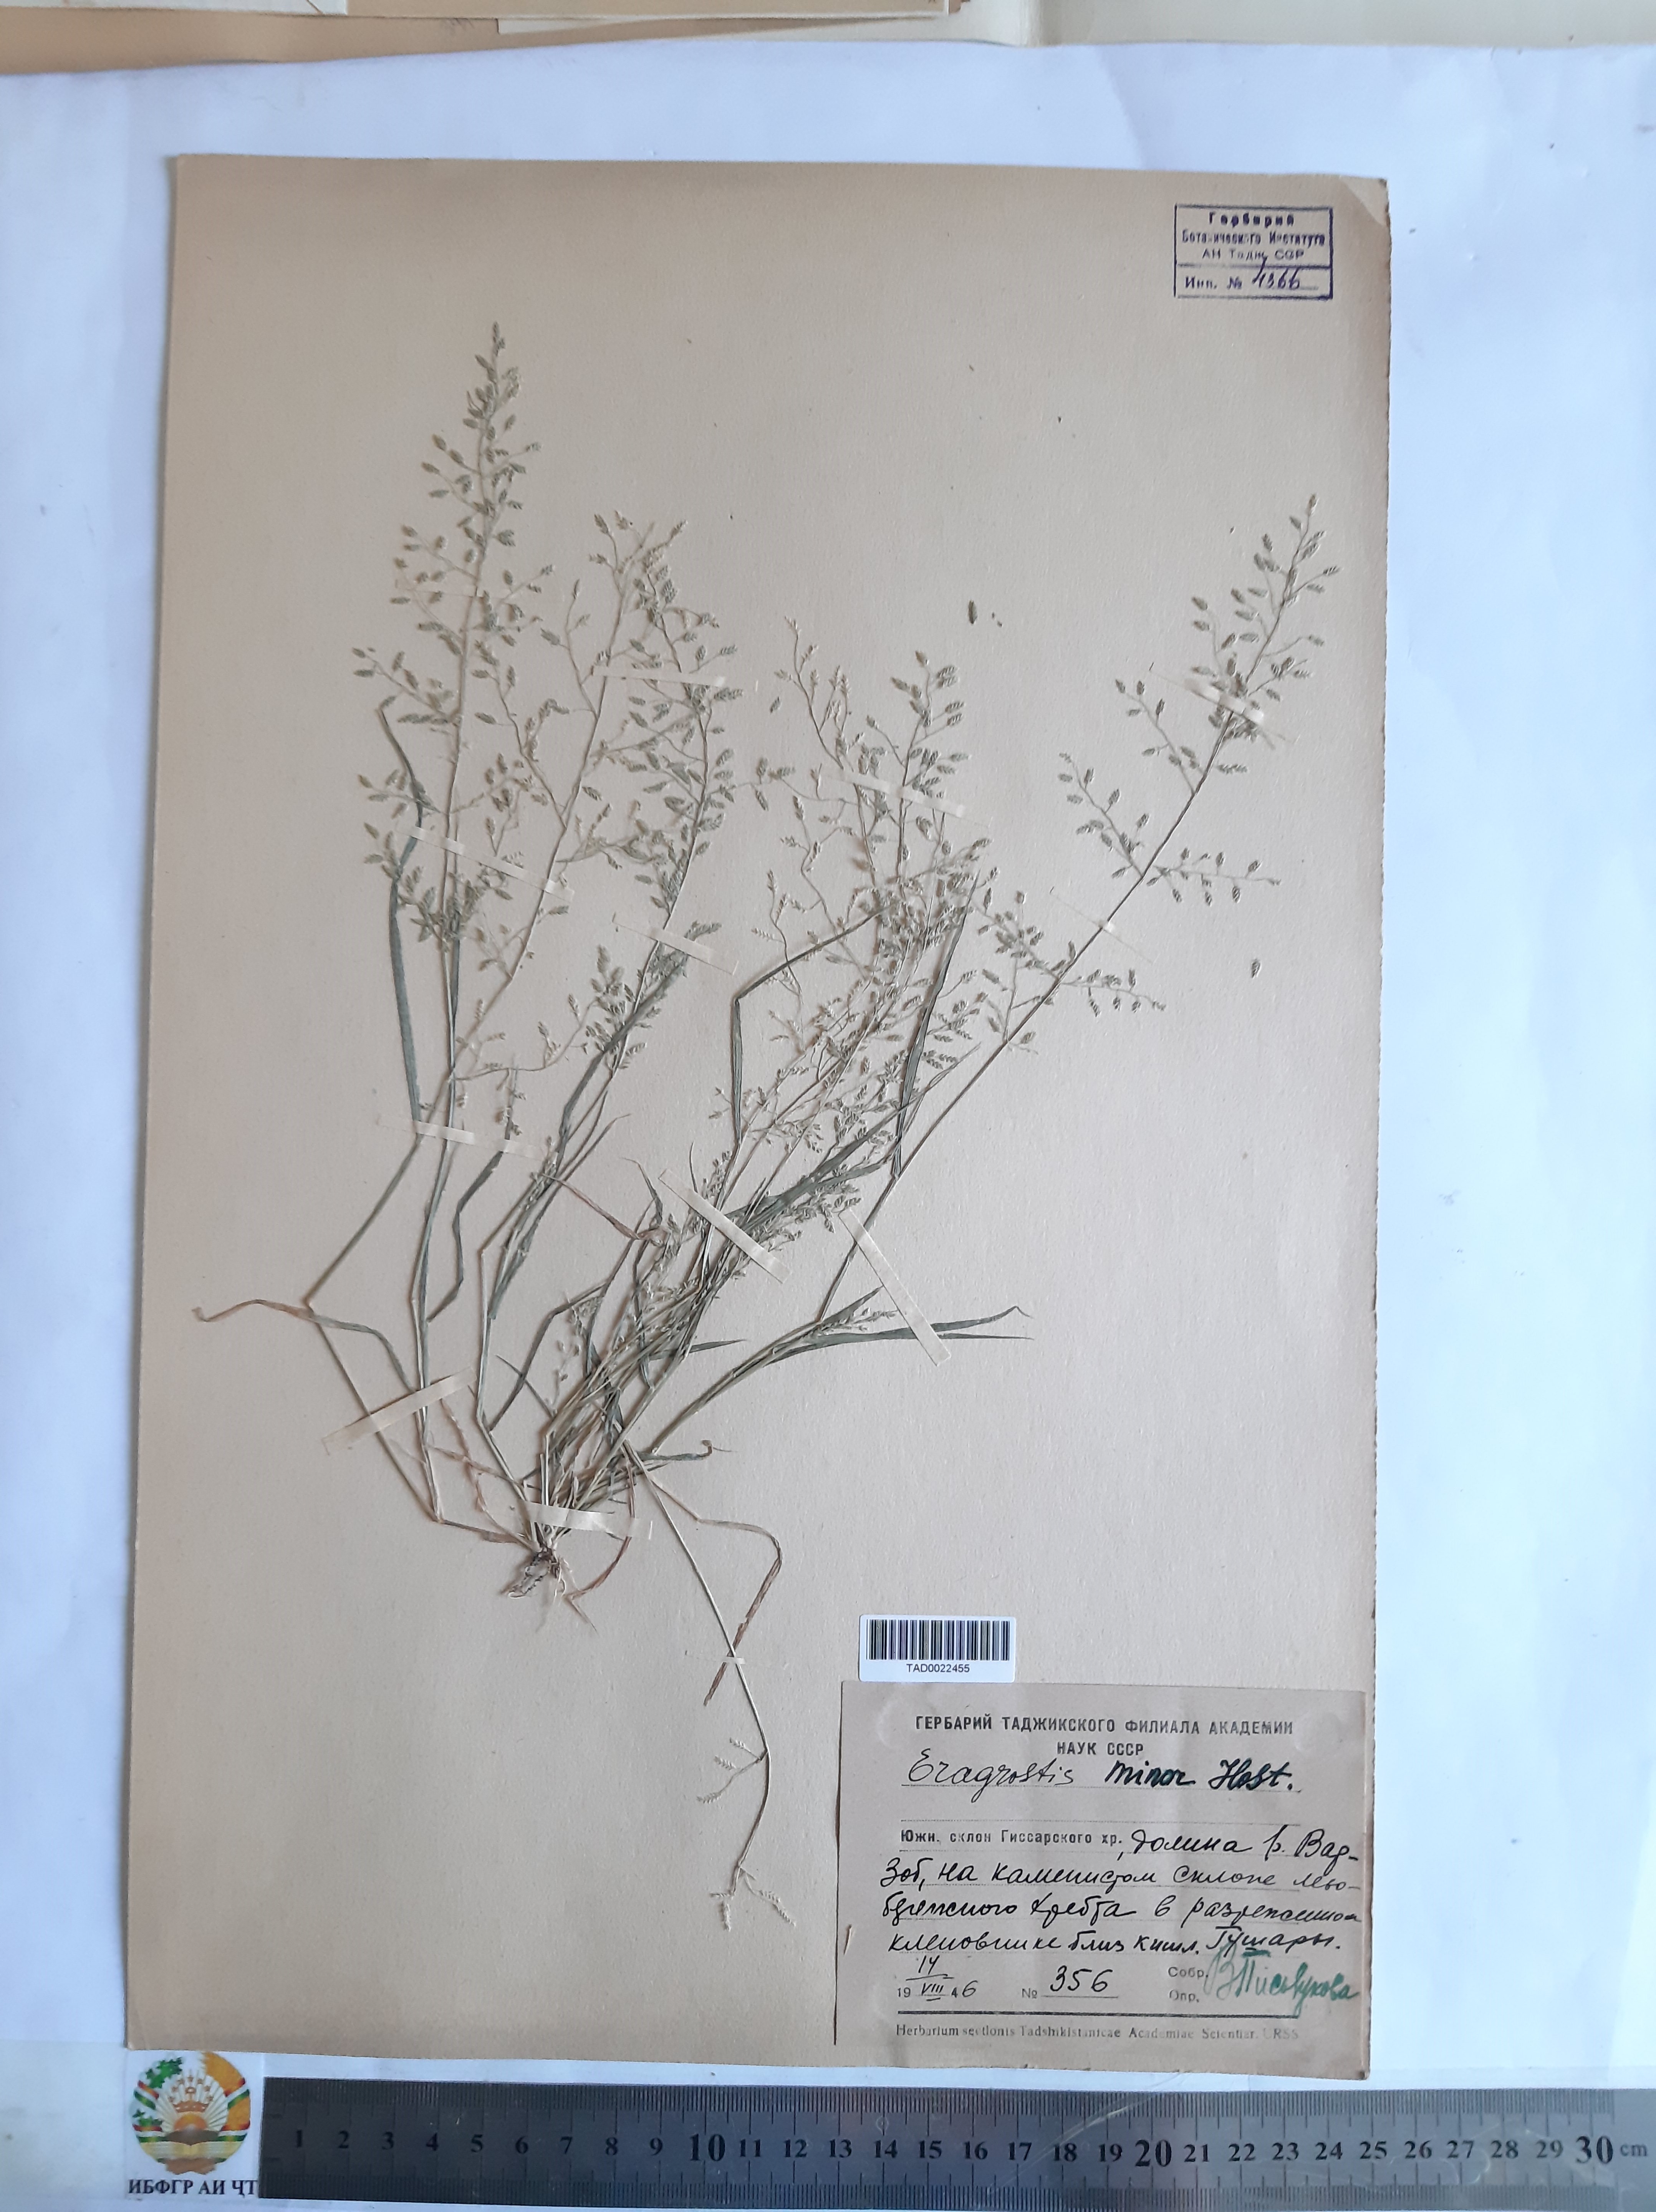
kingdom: Plantae
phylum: Tracheophyta
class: Liliopsida
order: Poales
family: Poaceae
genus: Eragrostis
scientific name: Eragrostis minor
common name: Small love-grass
